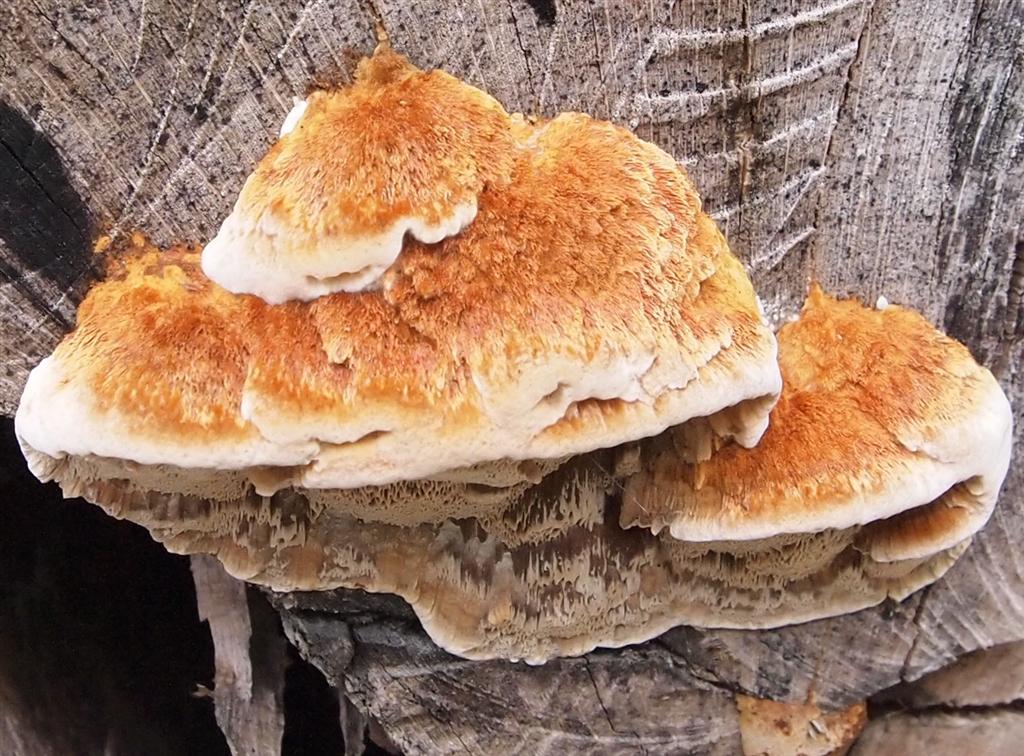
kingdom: Fungi
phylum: Basidiomycota
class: Agaricomycetes
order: Hymenochaetales
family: Hymenochaetaceae
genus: Mensularia
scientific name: Mensularia nodulosa
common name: bøge-spejlporesvamp
